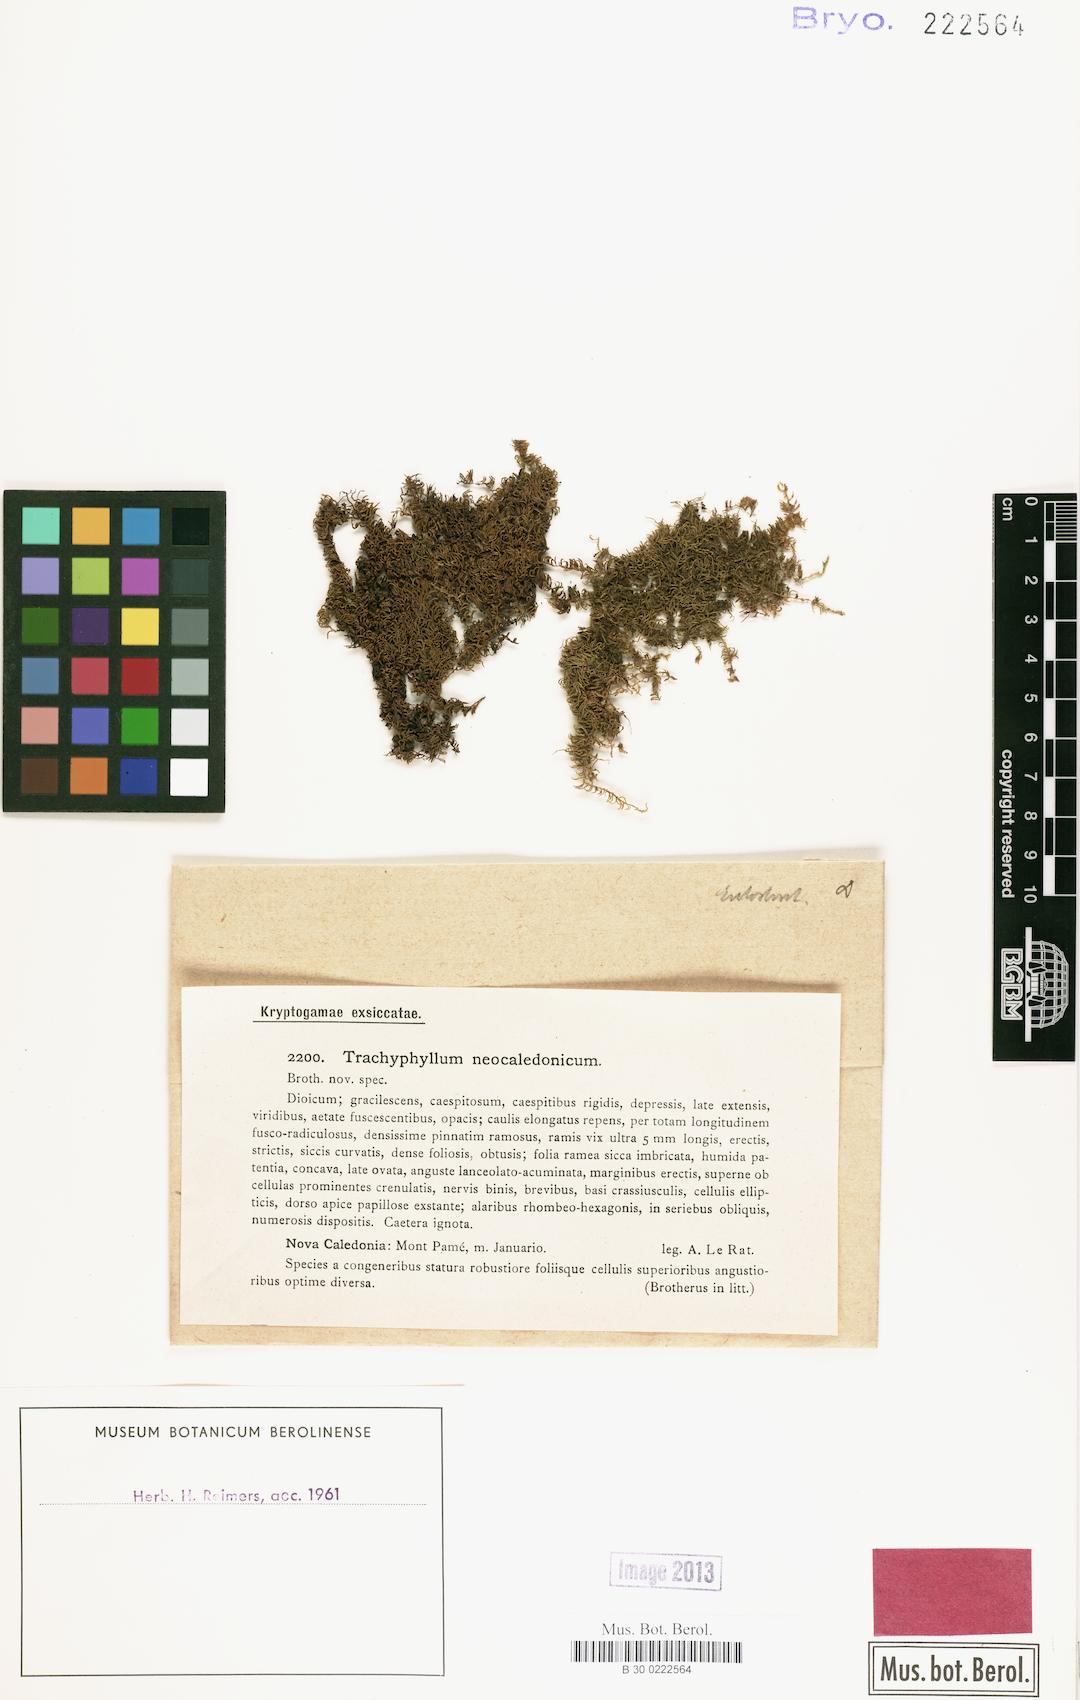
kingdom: Plantae
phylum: Bryophyta
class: Bryopsida
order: Hypnales
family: Pylaisiadelphaceae
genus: Trachyphyllum
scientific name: Trachyphyllum inflexum
